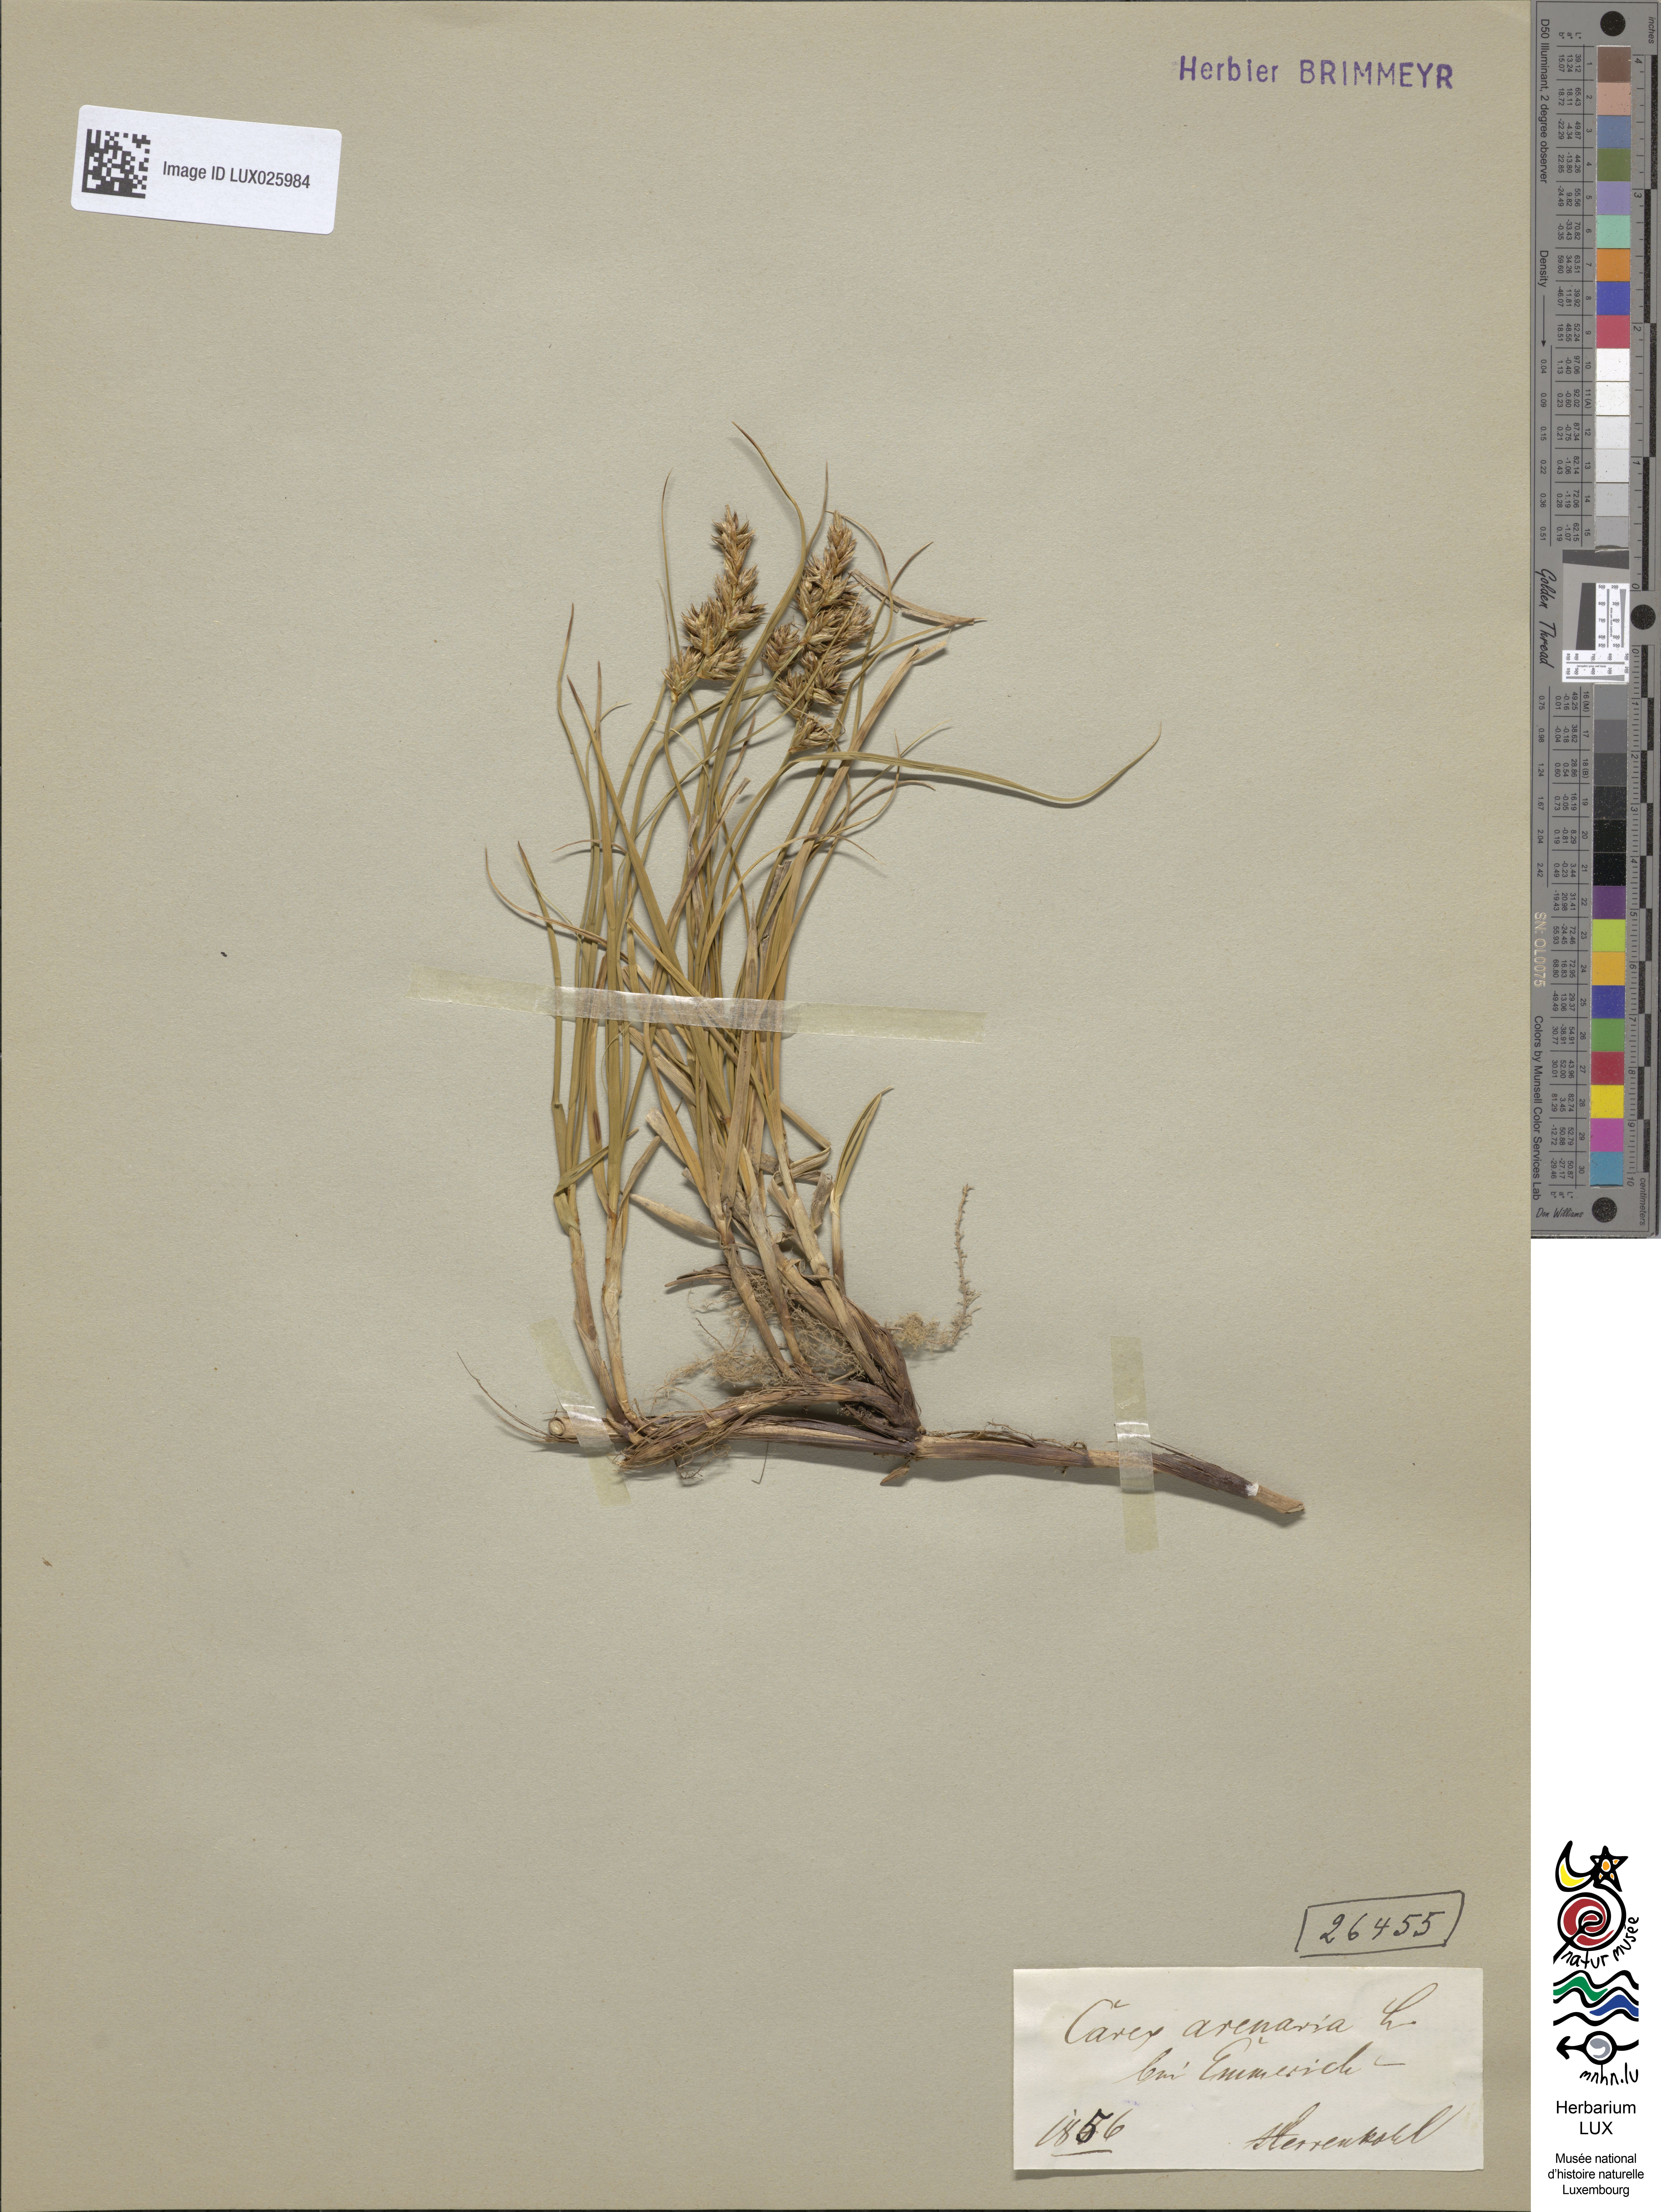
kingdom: Plantae
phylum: Tracheophyta
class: Liliopsida
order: Poales
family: Cyperaceae
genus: Carex
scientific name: Carex arenaria
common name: Sand sedge
